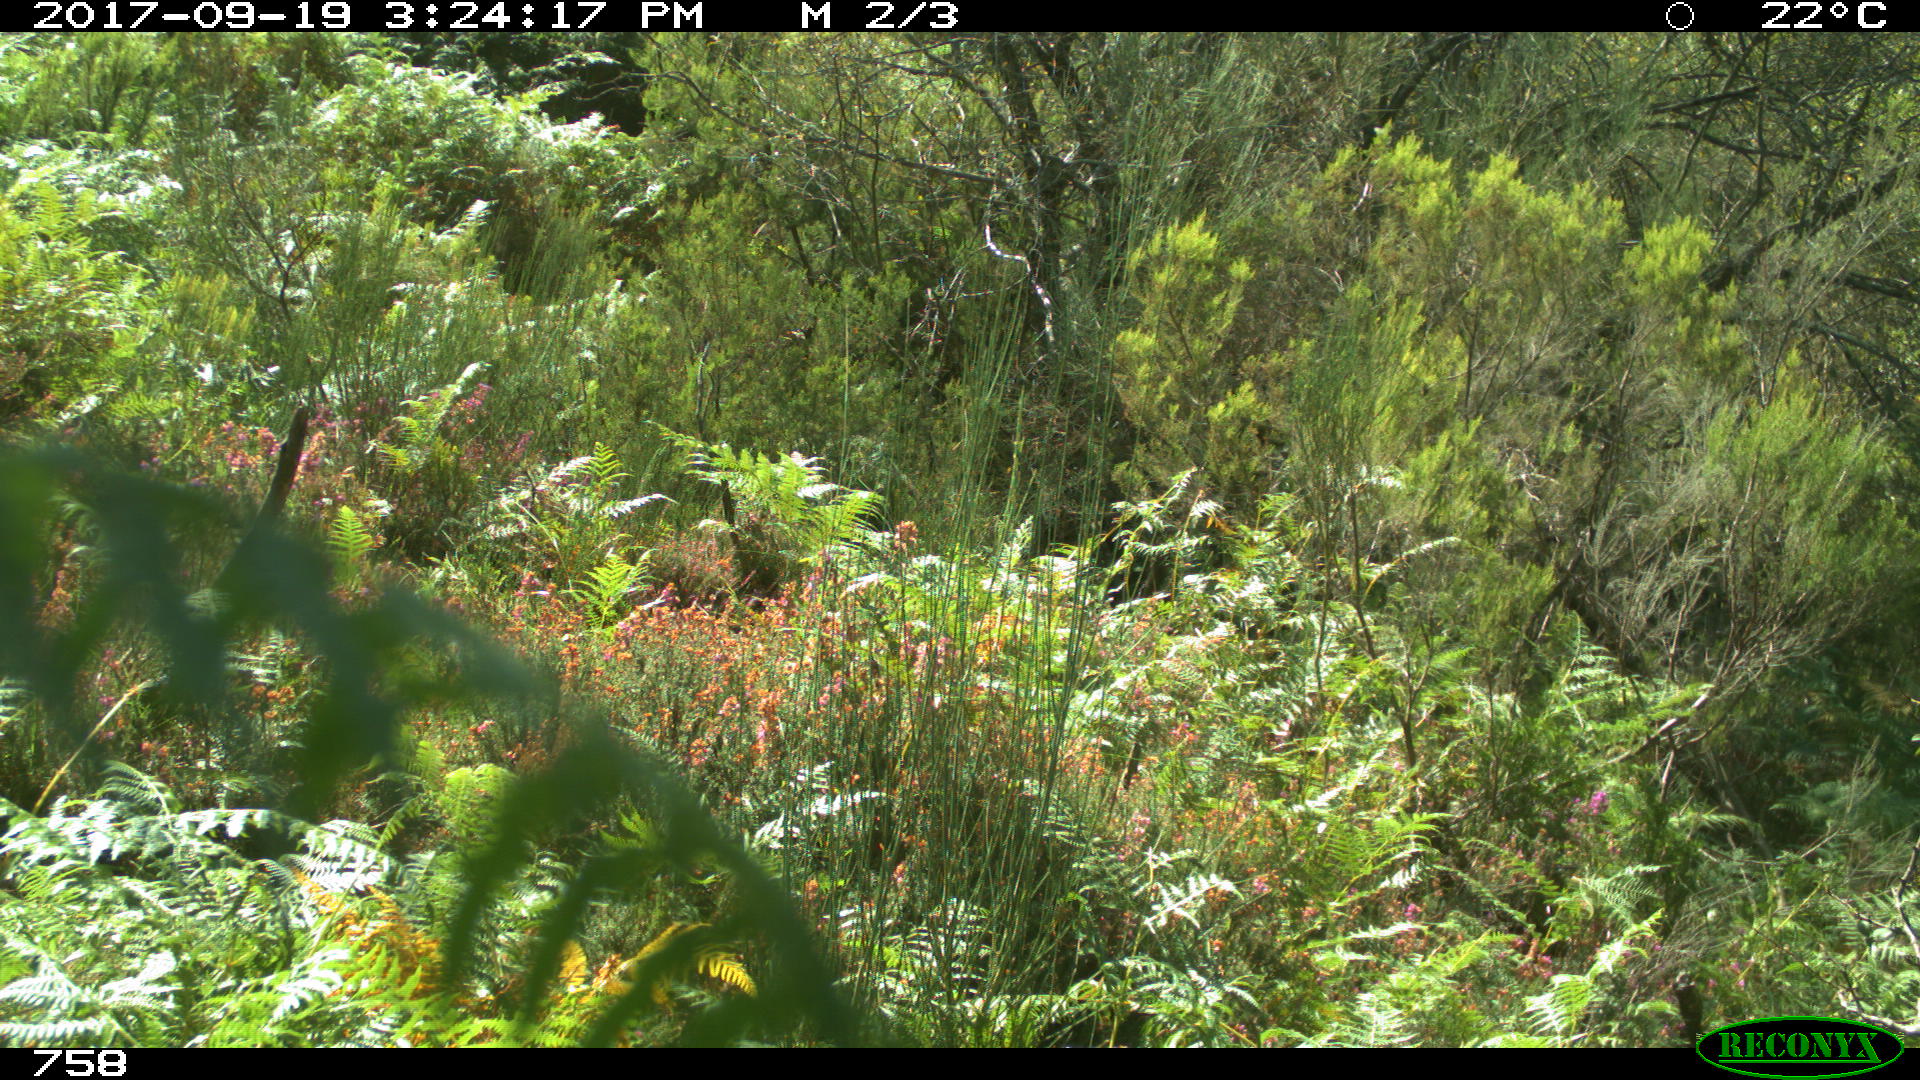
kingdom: Animalia
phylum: Chordata
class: Mammalia
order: Perissodactyla
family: Equidae
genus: Equus
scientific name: Equus caballus
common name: Horse
